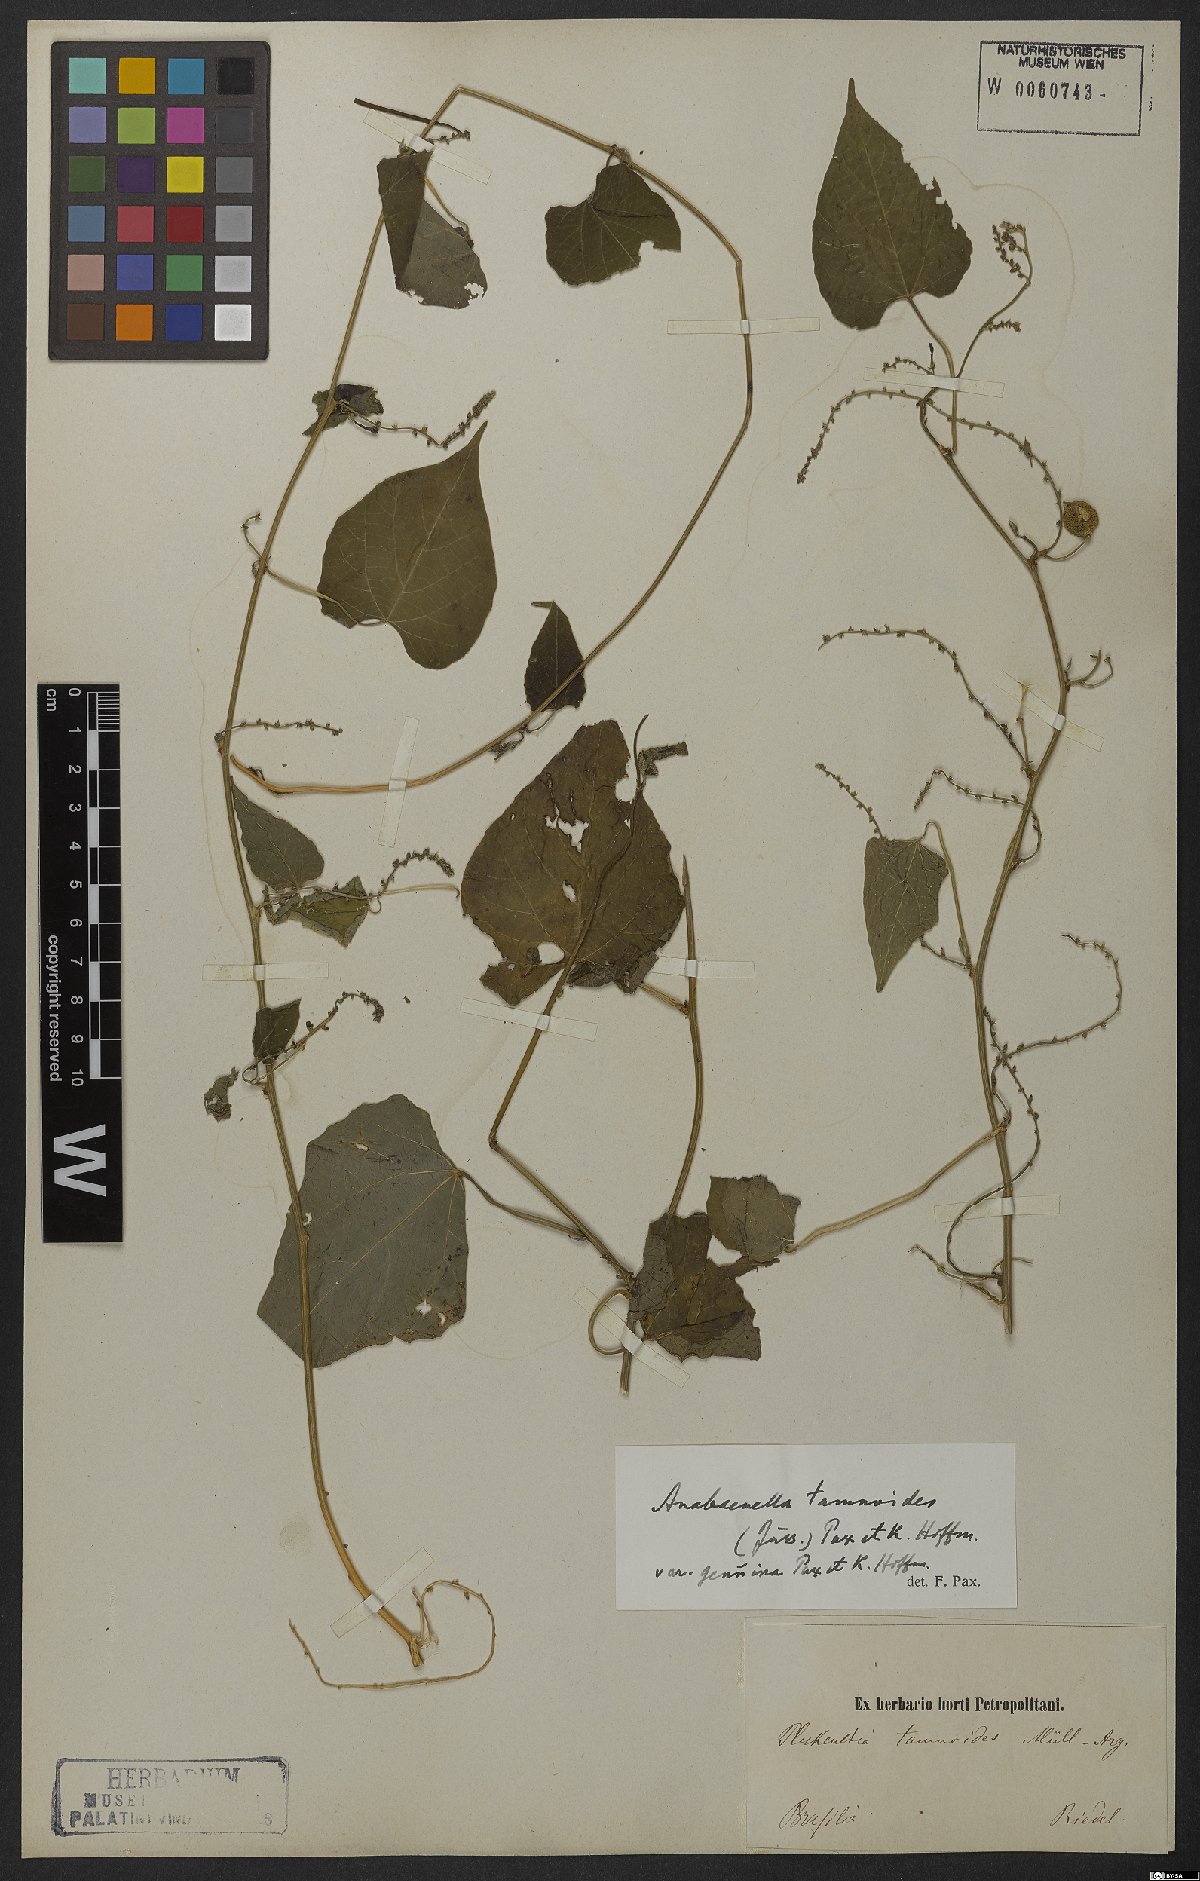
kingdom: Plantae
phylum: Tracheophyta
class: Magnoliopsida
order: Malpighiales
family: Euphorbiaceae
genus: Romanoa
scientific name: Romanoa tamnoides
